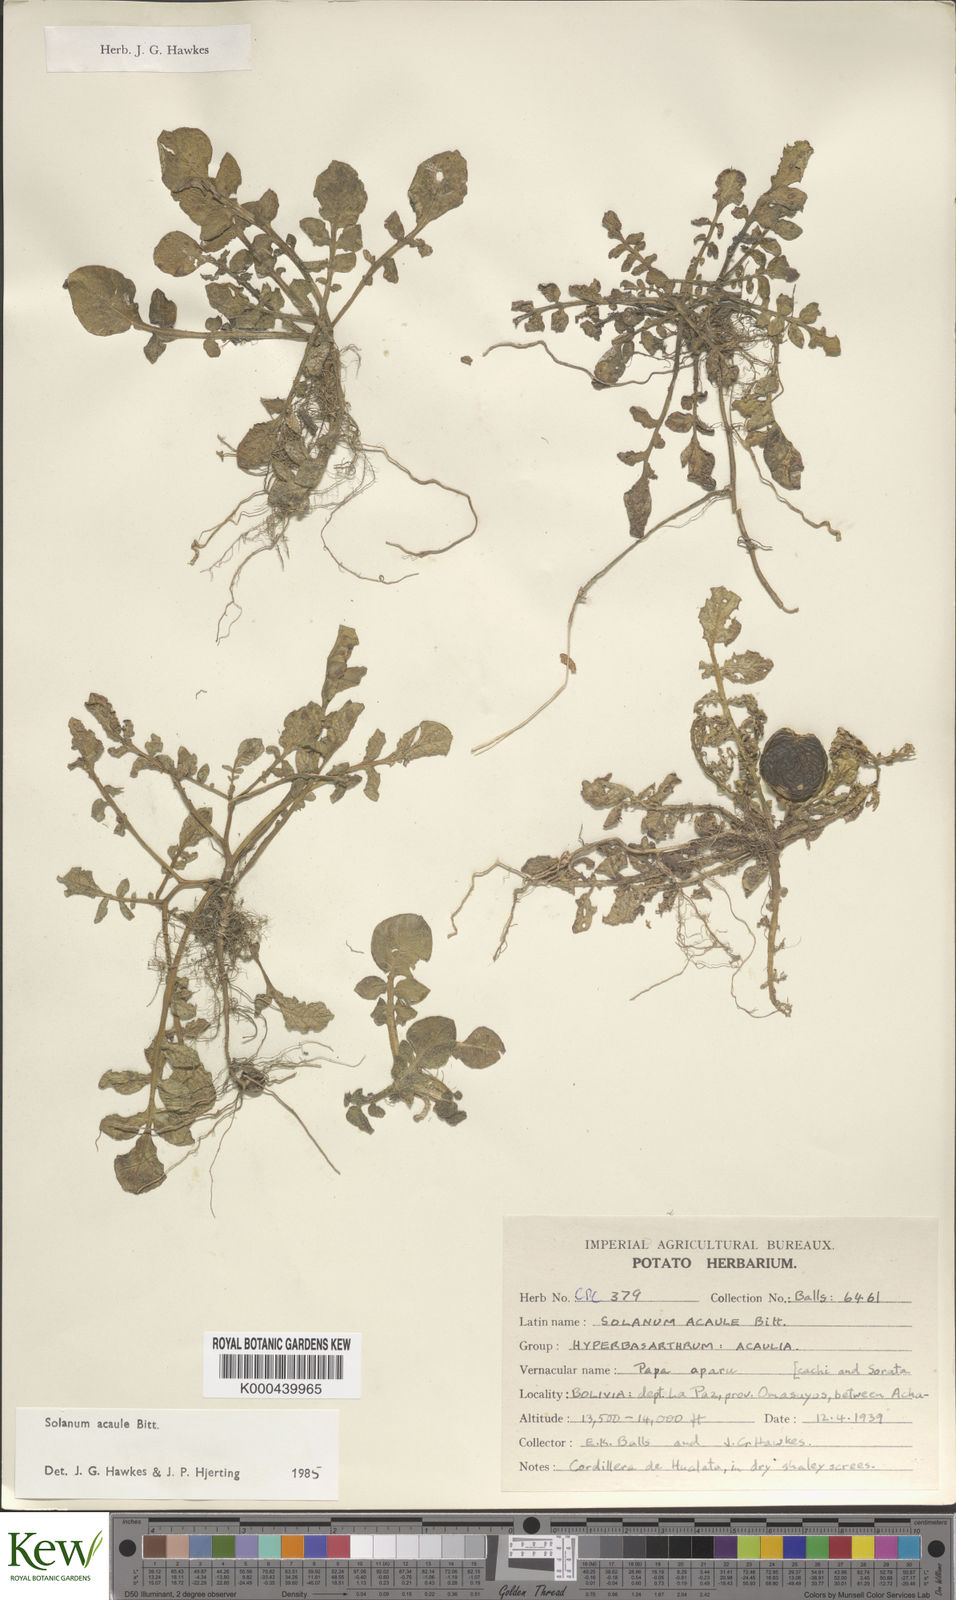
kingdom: Plantae
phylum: Tracheophyta
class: Magnoliopsida
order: Solanales
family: Solanaceae
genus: Solanum
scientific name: Solanum acaule
